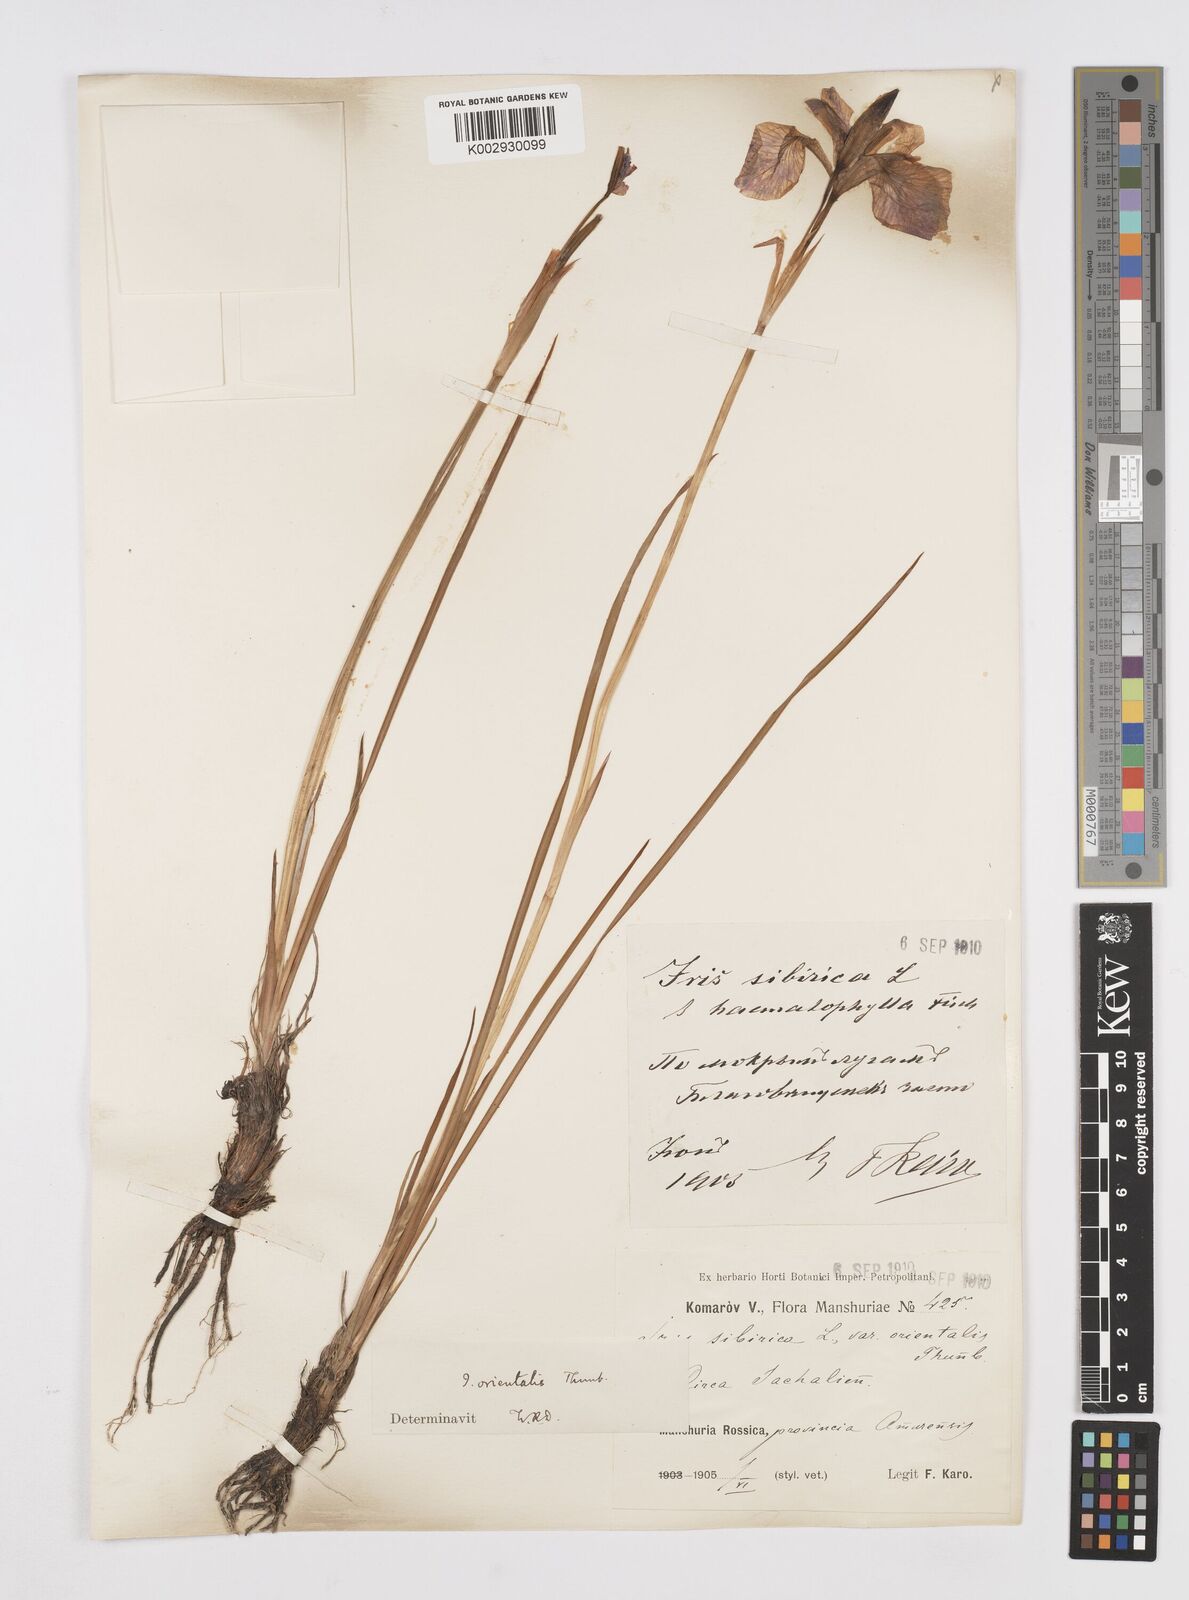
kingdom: Plantae
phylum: Tracheophyta
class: Liliopsida
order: Asparagales
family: Iridaceae
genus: Iris
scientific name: Iris sanguinea
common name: Blood iris
